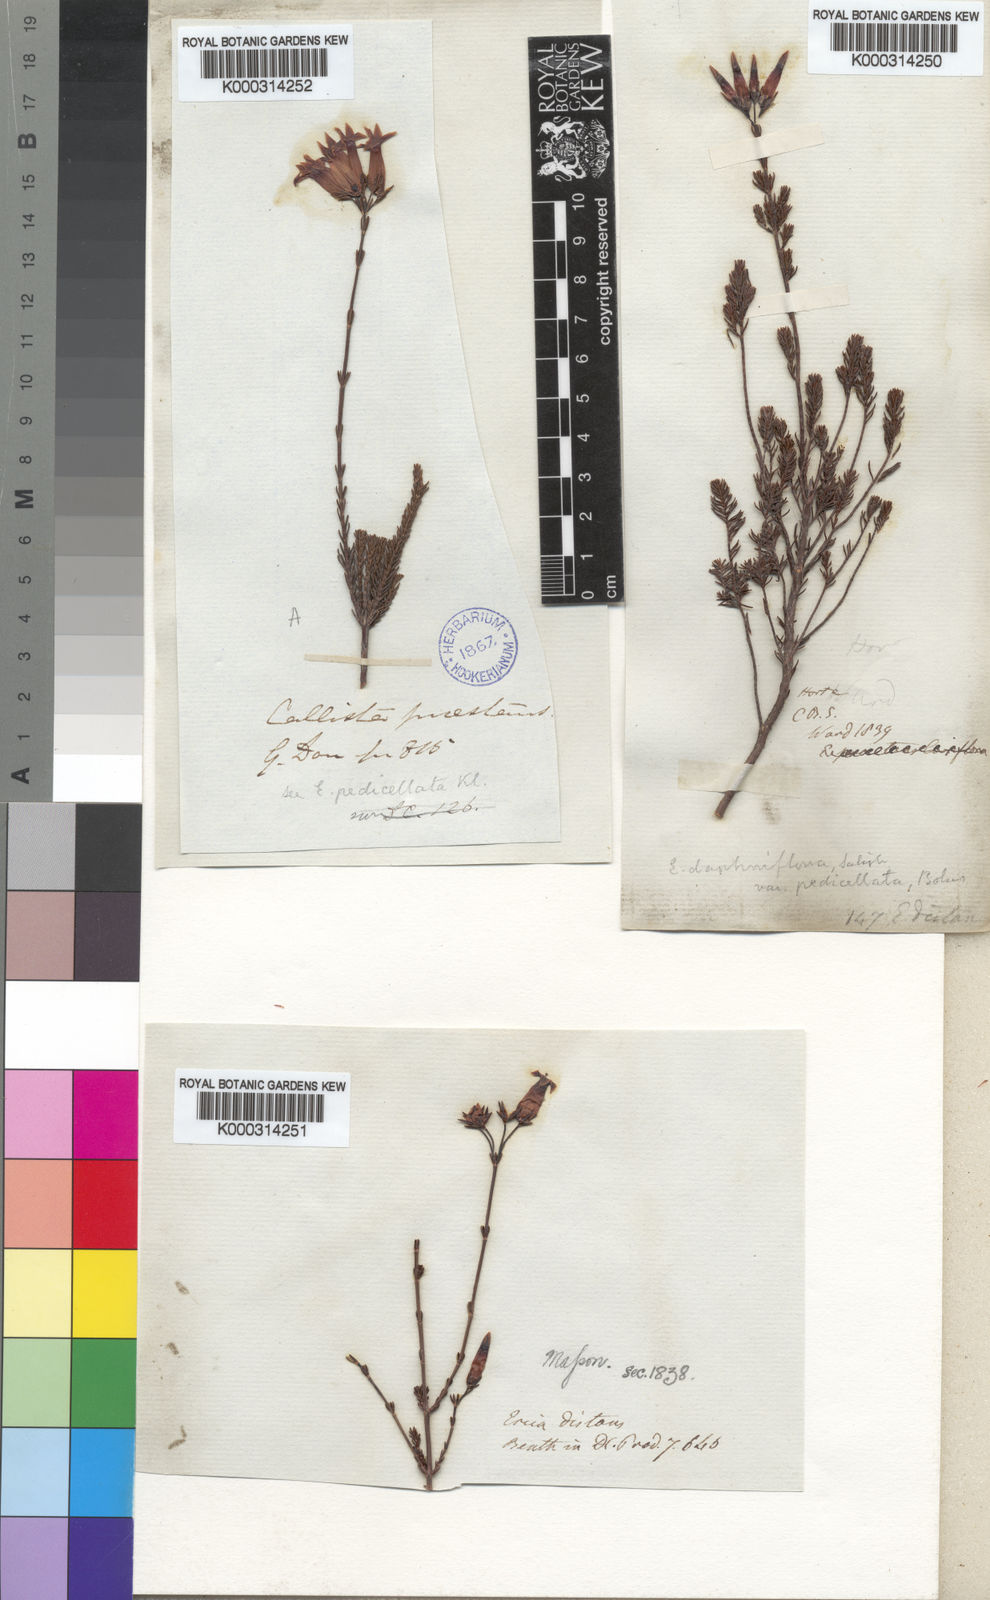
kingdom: Plantae
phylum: Tracheophyta
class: Magnoliopsida
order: Ericales
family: Ericaceae
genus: Erica
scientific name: Erica daphniflora
